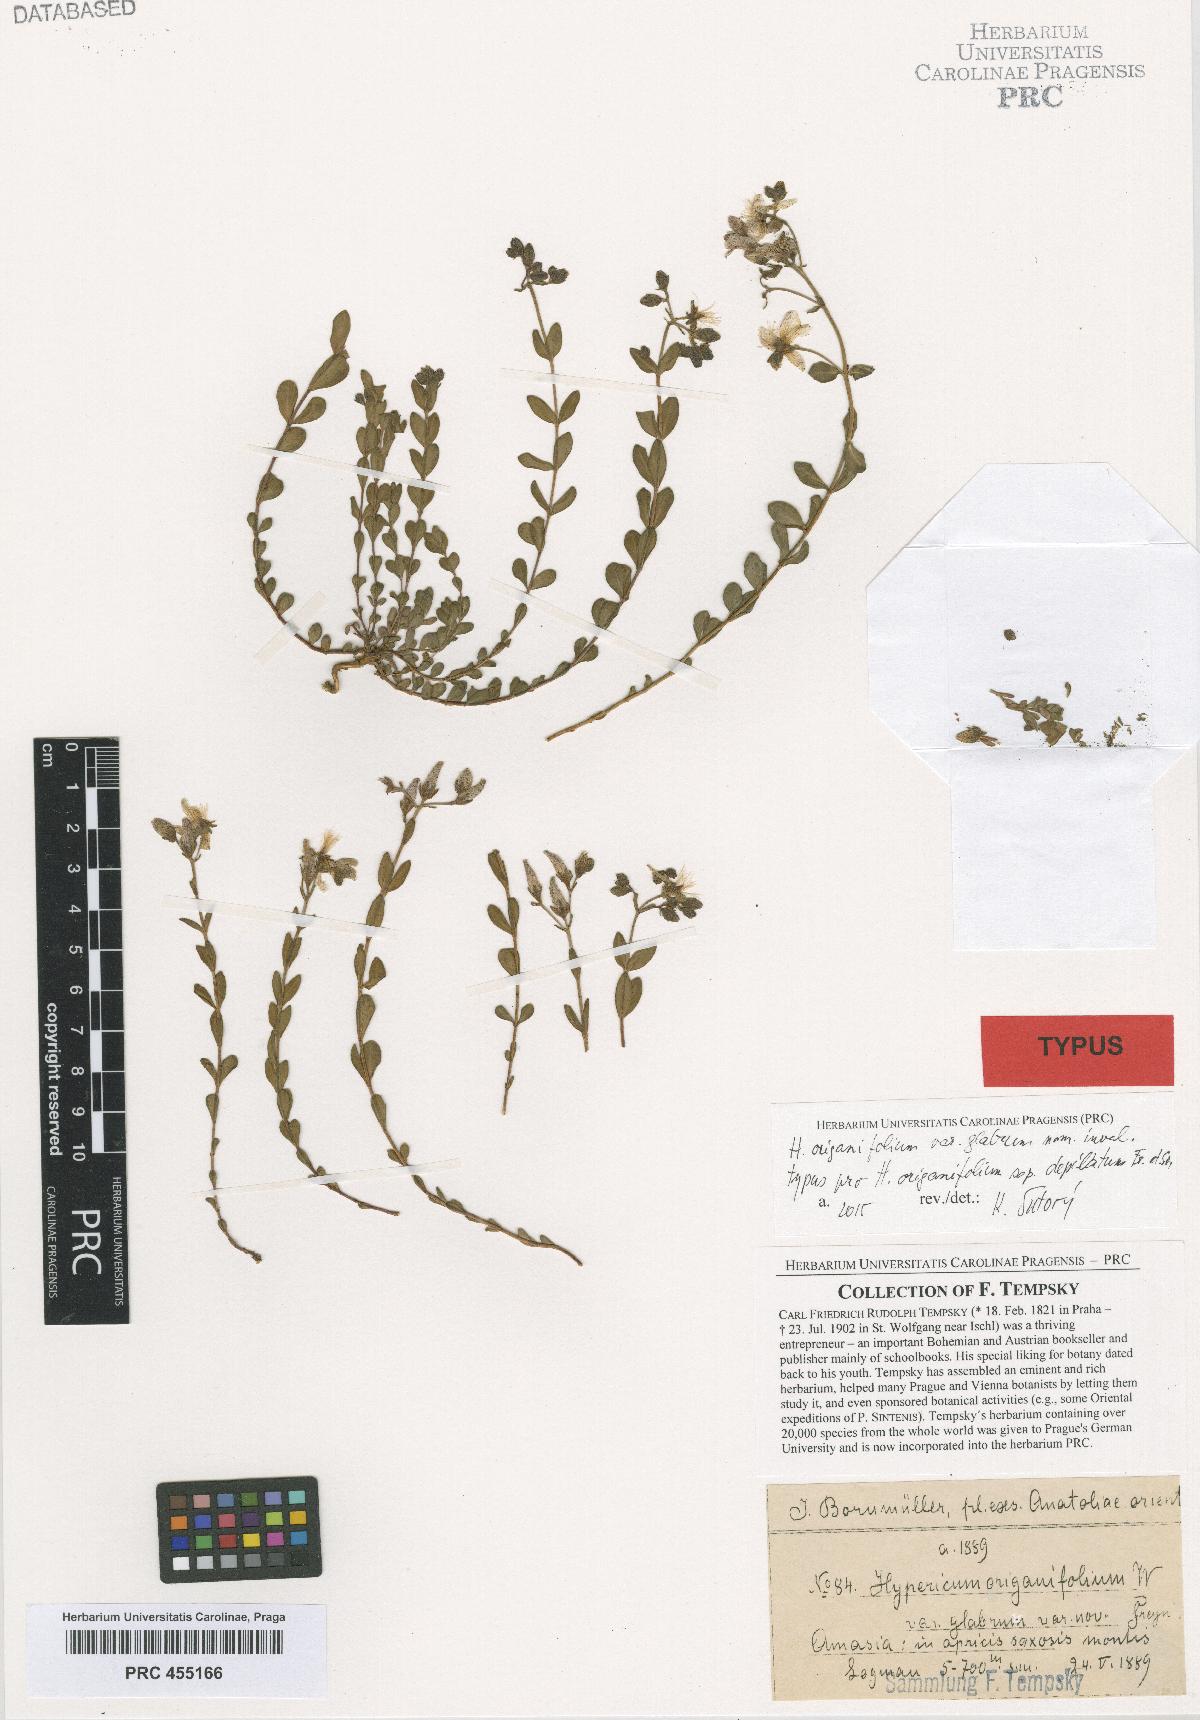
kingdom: Plantae
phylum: Tracheophyta
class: Magnoliopsida
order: Malpighiales
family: Hypericaceae
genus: Hypericum
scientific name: Hypericum orientale
